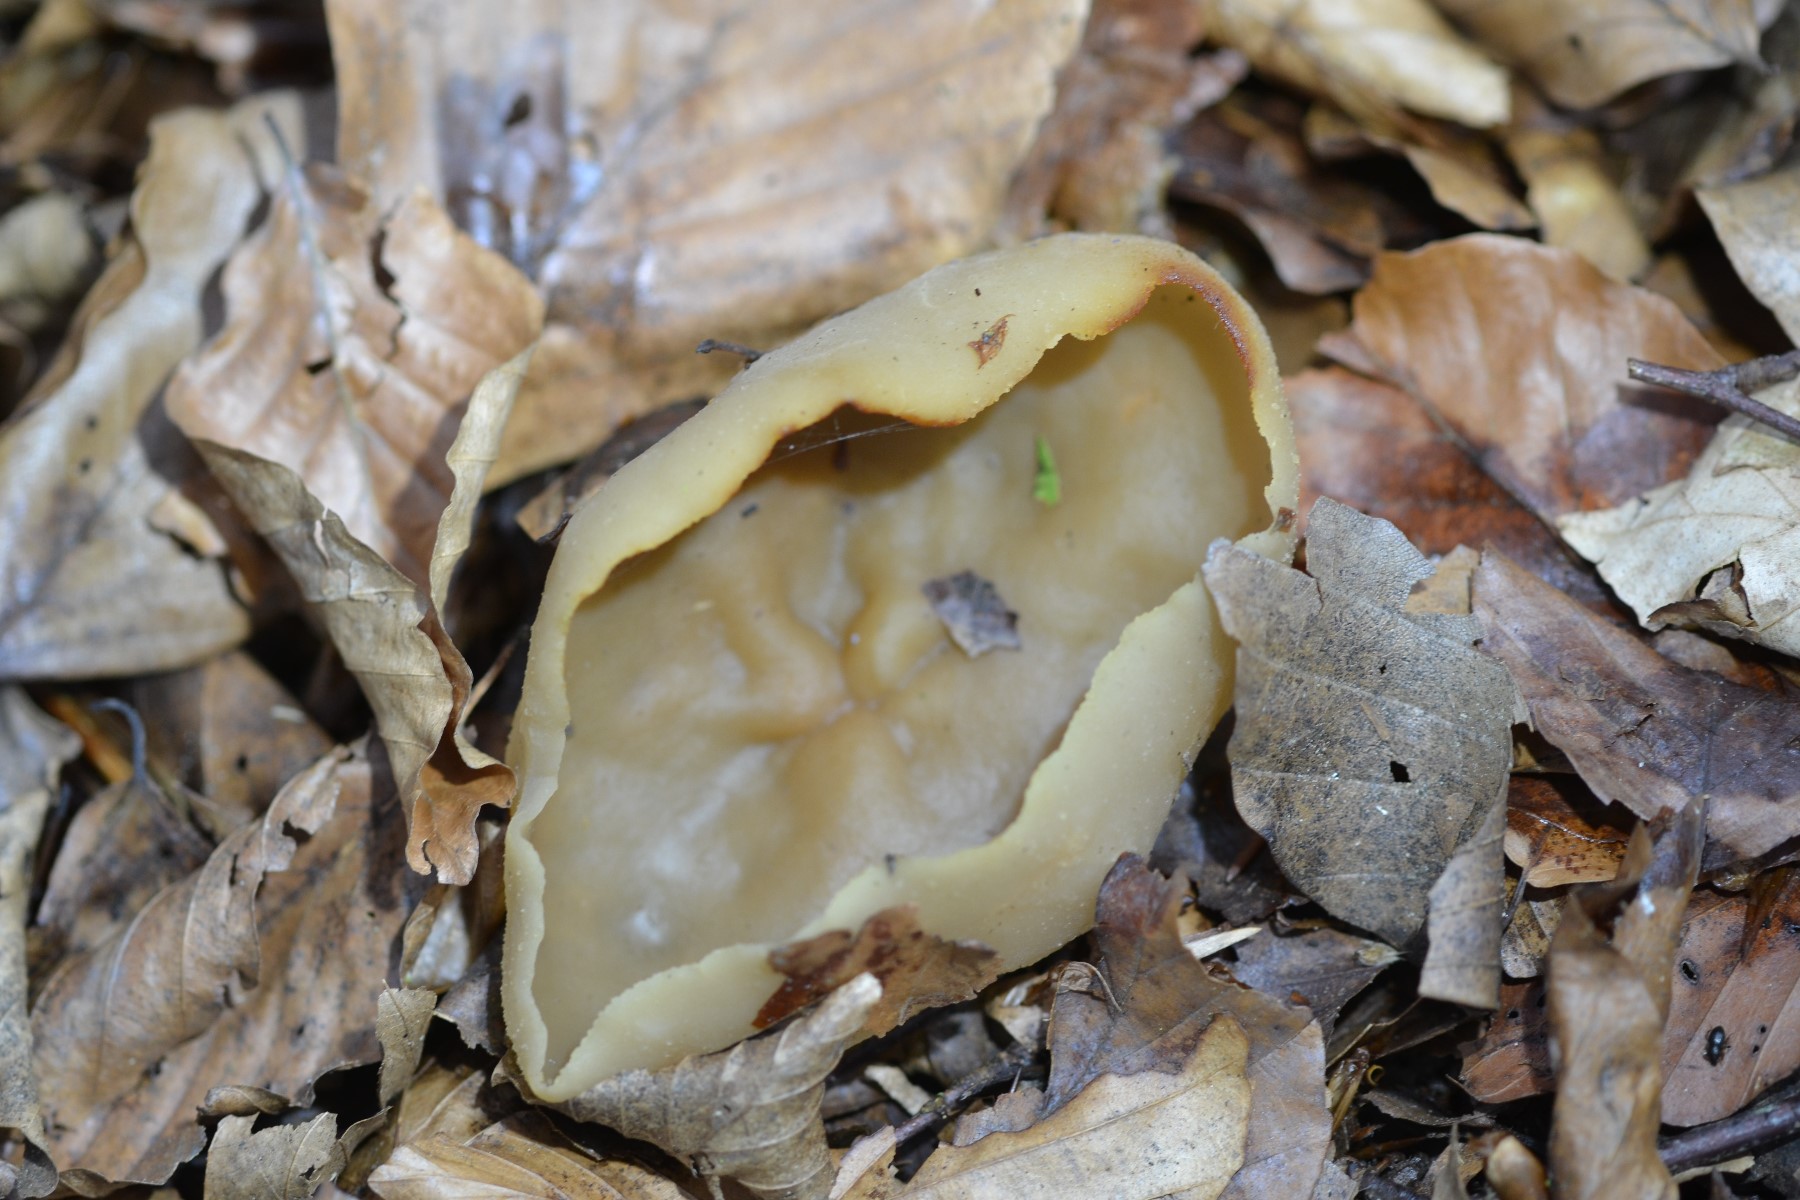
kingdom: Fungi
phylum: Ascomycota
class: Pezizomycetes
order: Pezizales
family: Pezizaceae
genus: Peziza
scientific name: Peziza
